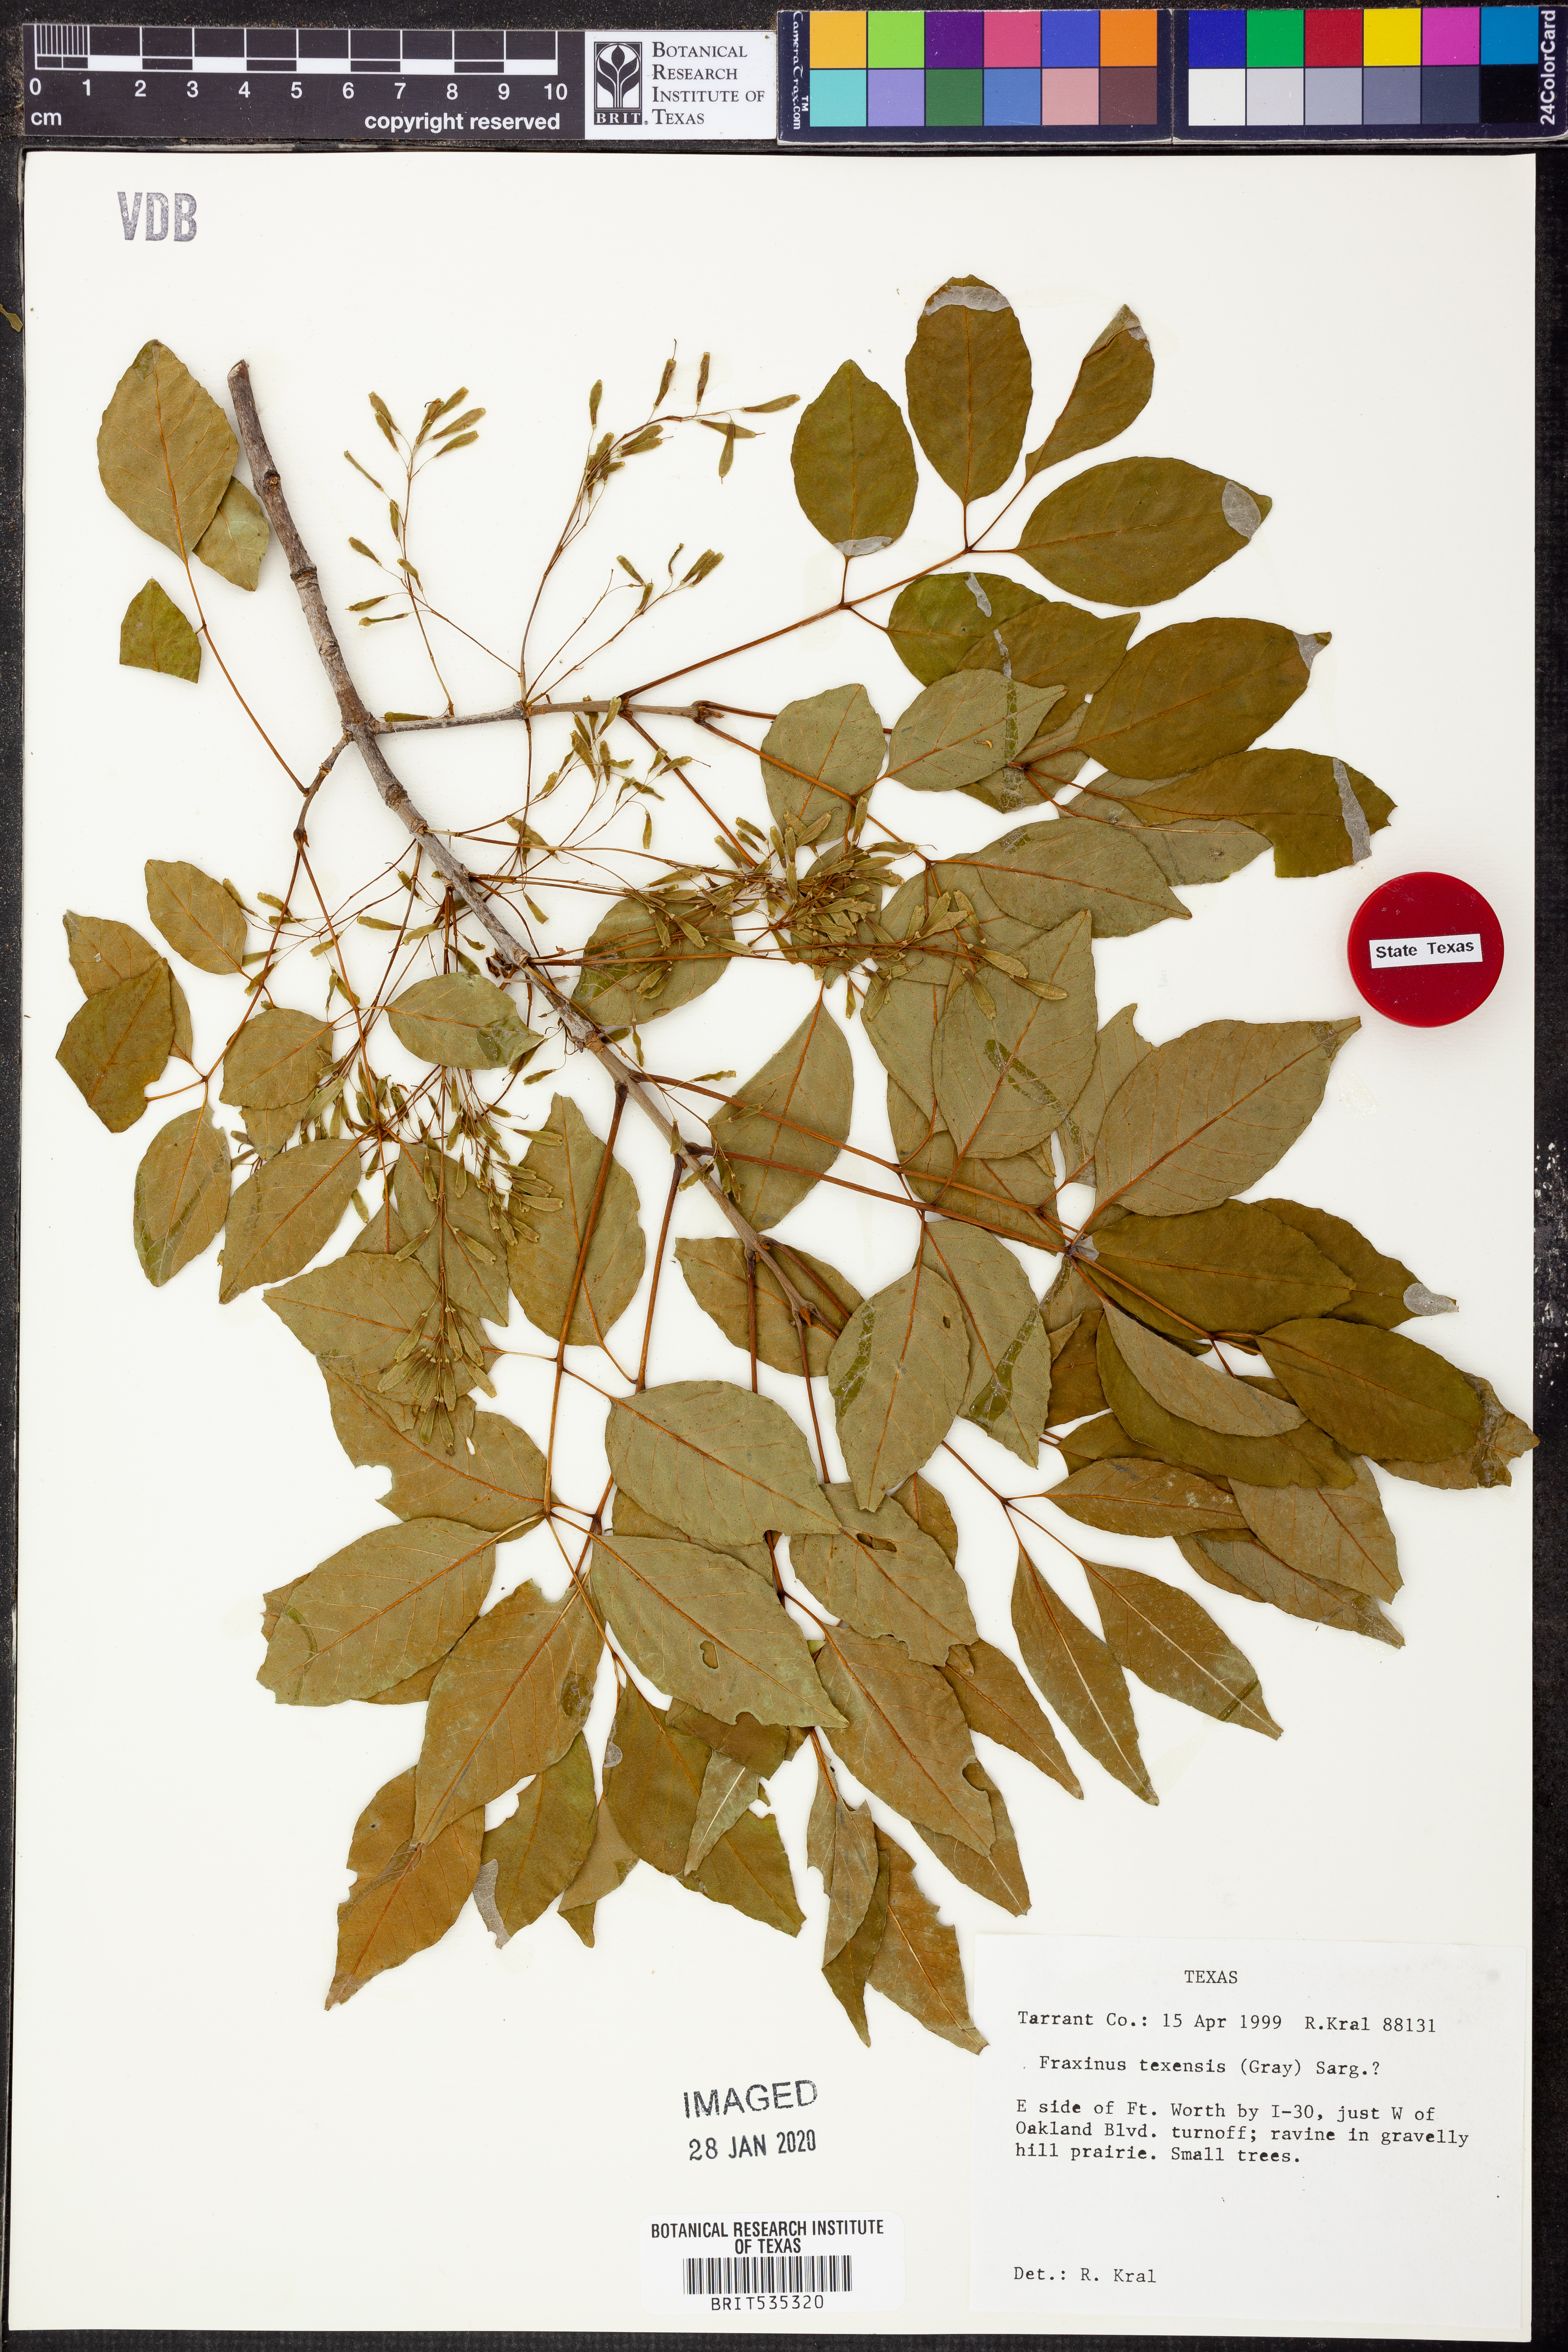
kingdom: Plantae
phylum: Tracheophyta
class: Magnoliopsida
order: Lamiales
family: Oleaceae
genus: Fraxinus
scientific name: Fraxinus albicans
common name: Texas ash
